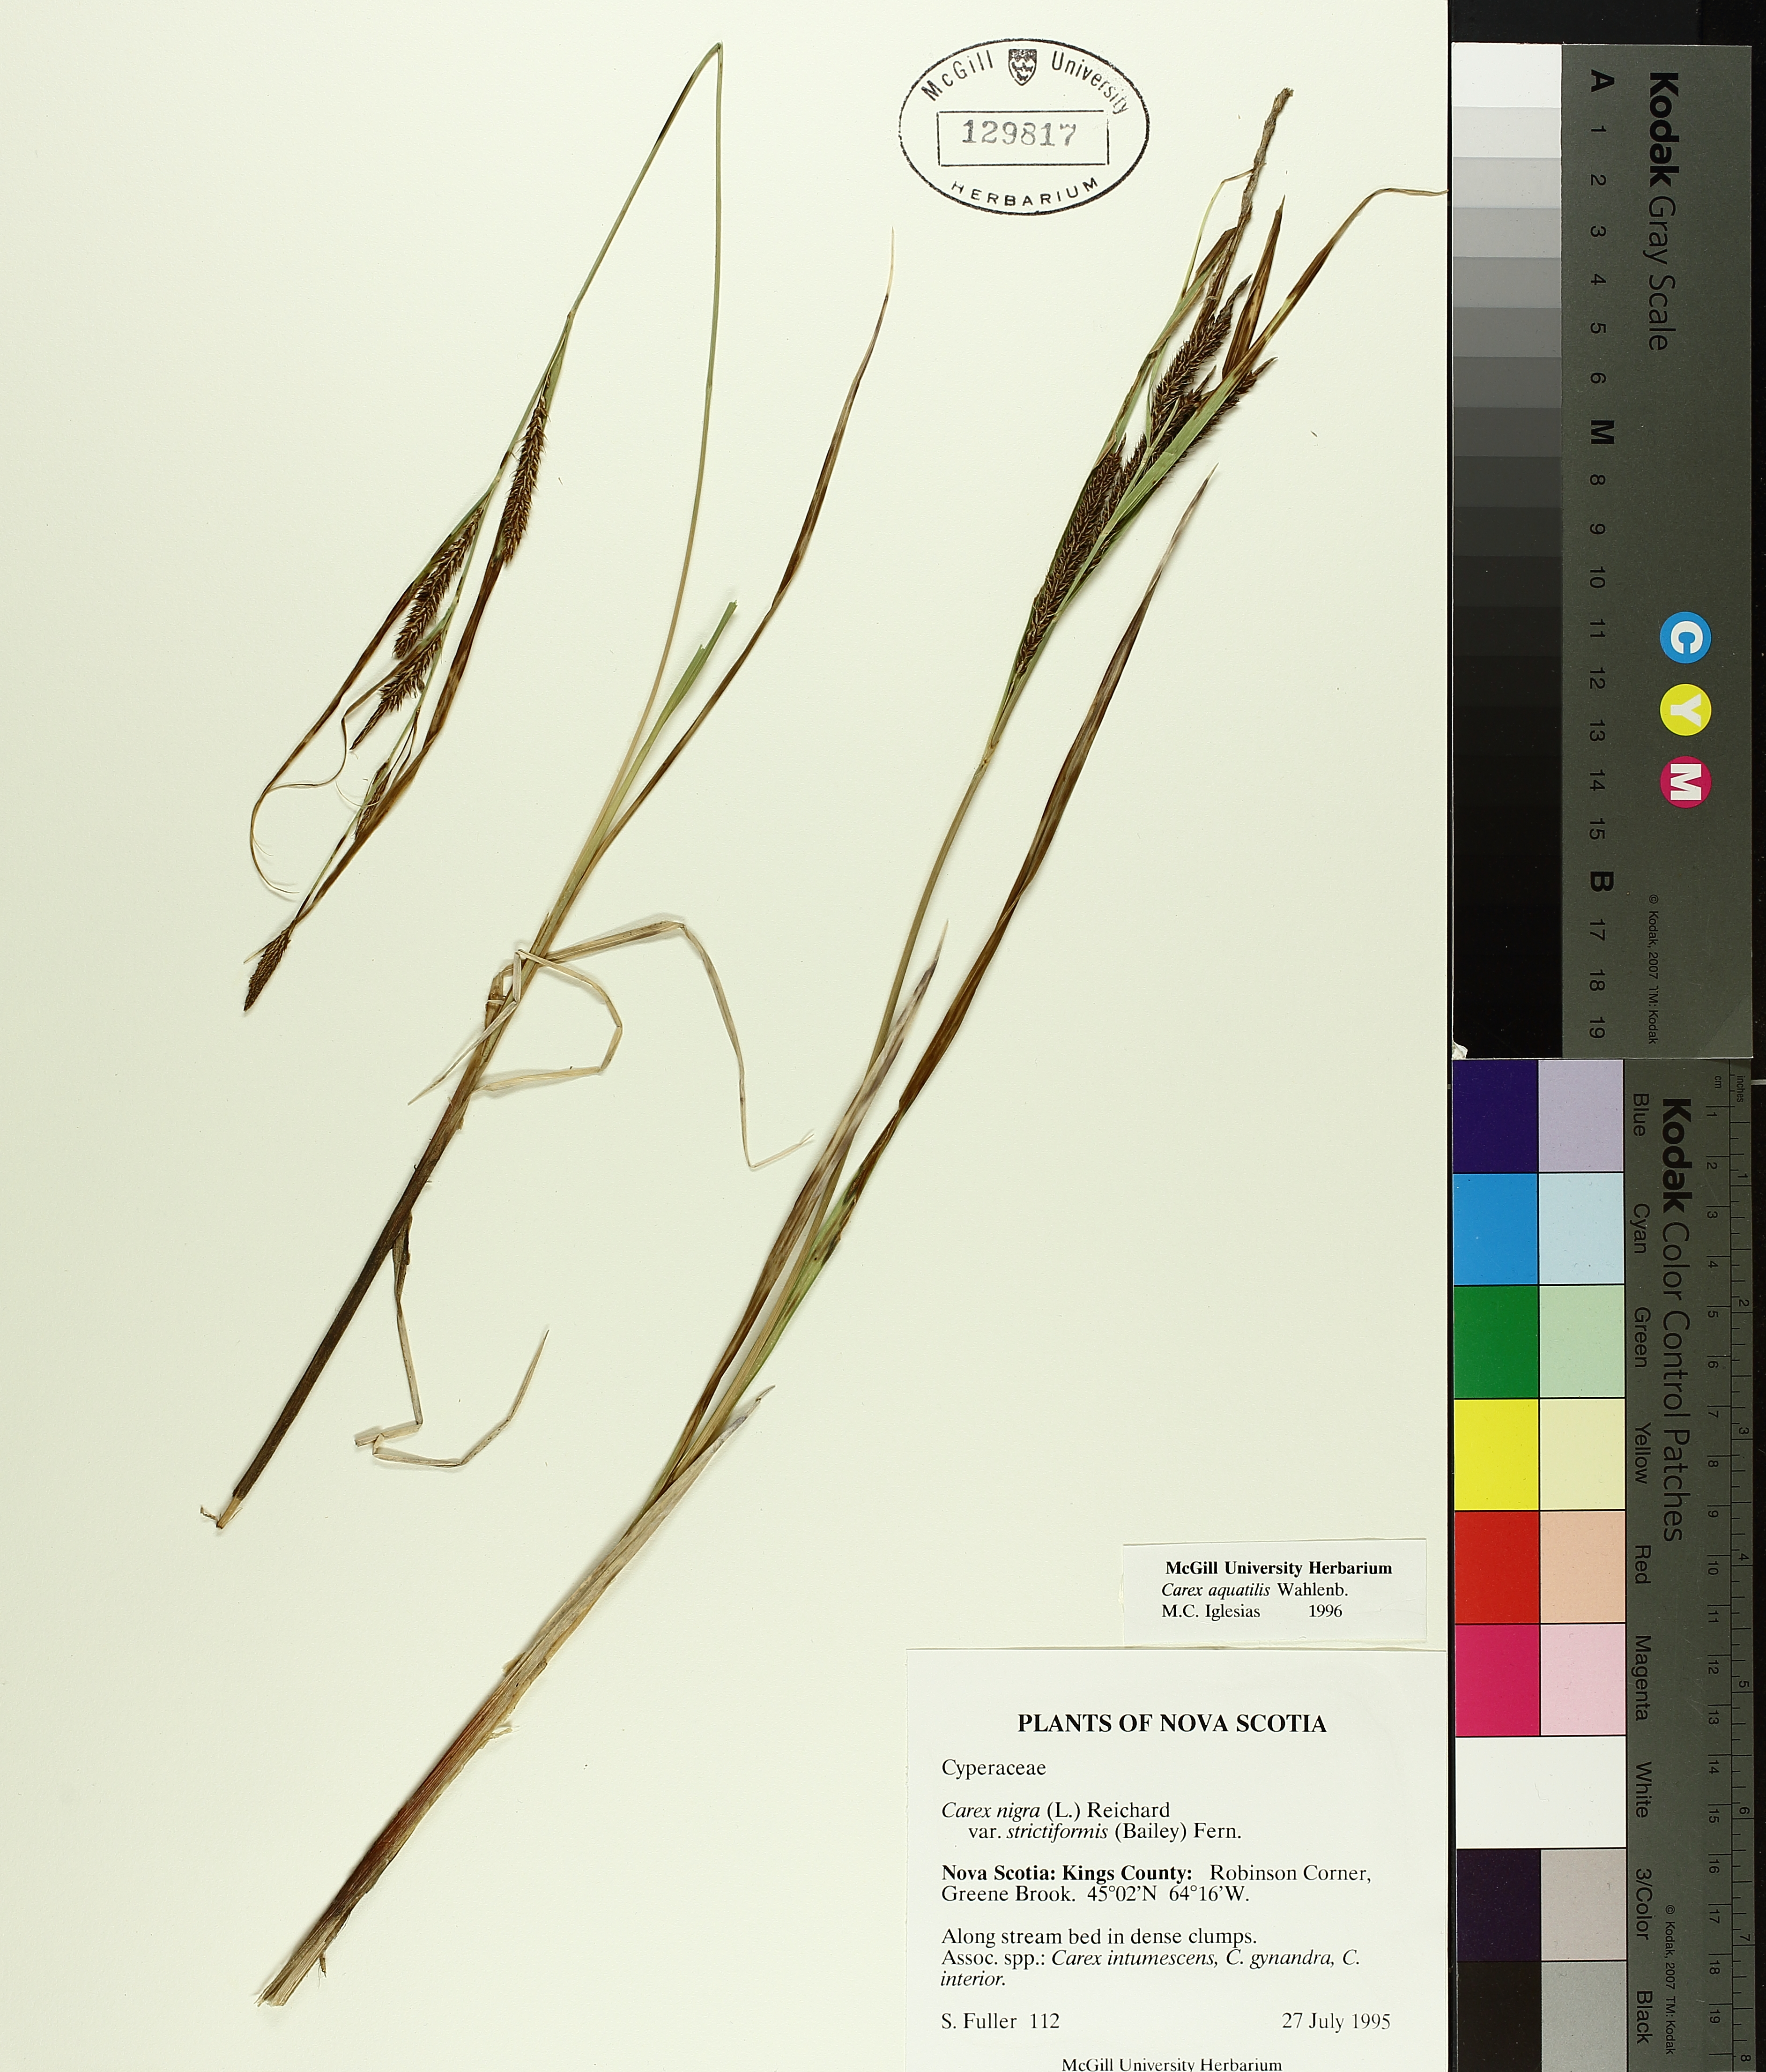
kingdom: Plantae
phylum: Tracheophyta
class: Liliopsida
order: Poales
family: Cyperaceae
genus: Carex
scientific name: Carex aquatilis
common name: Water sedge
